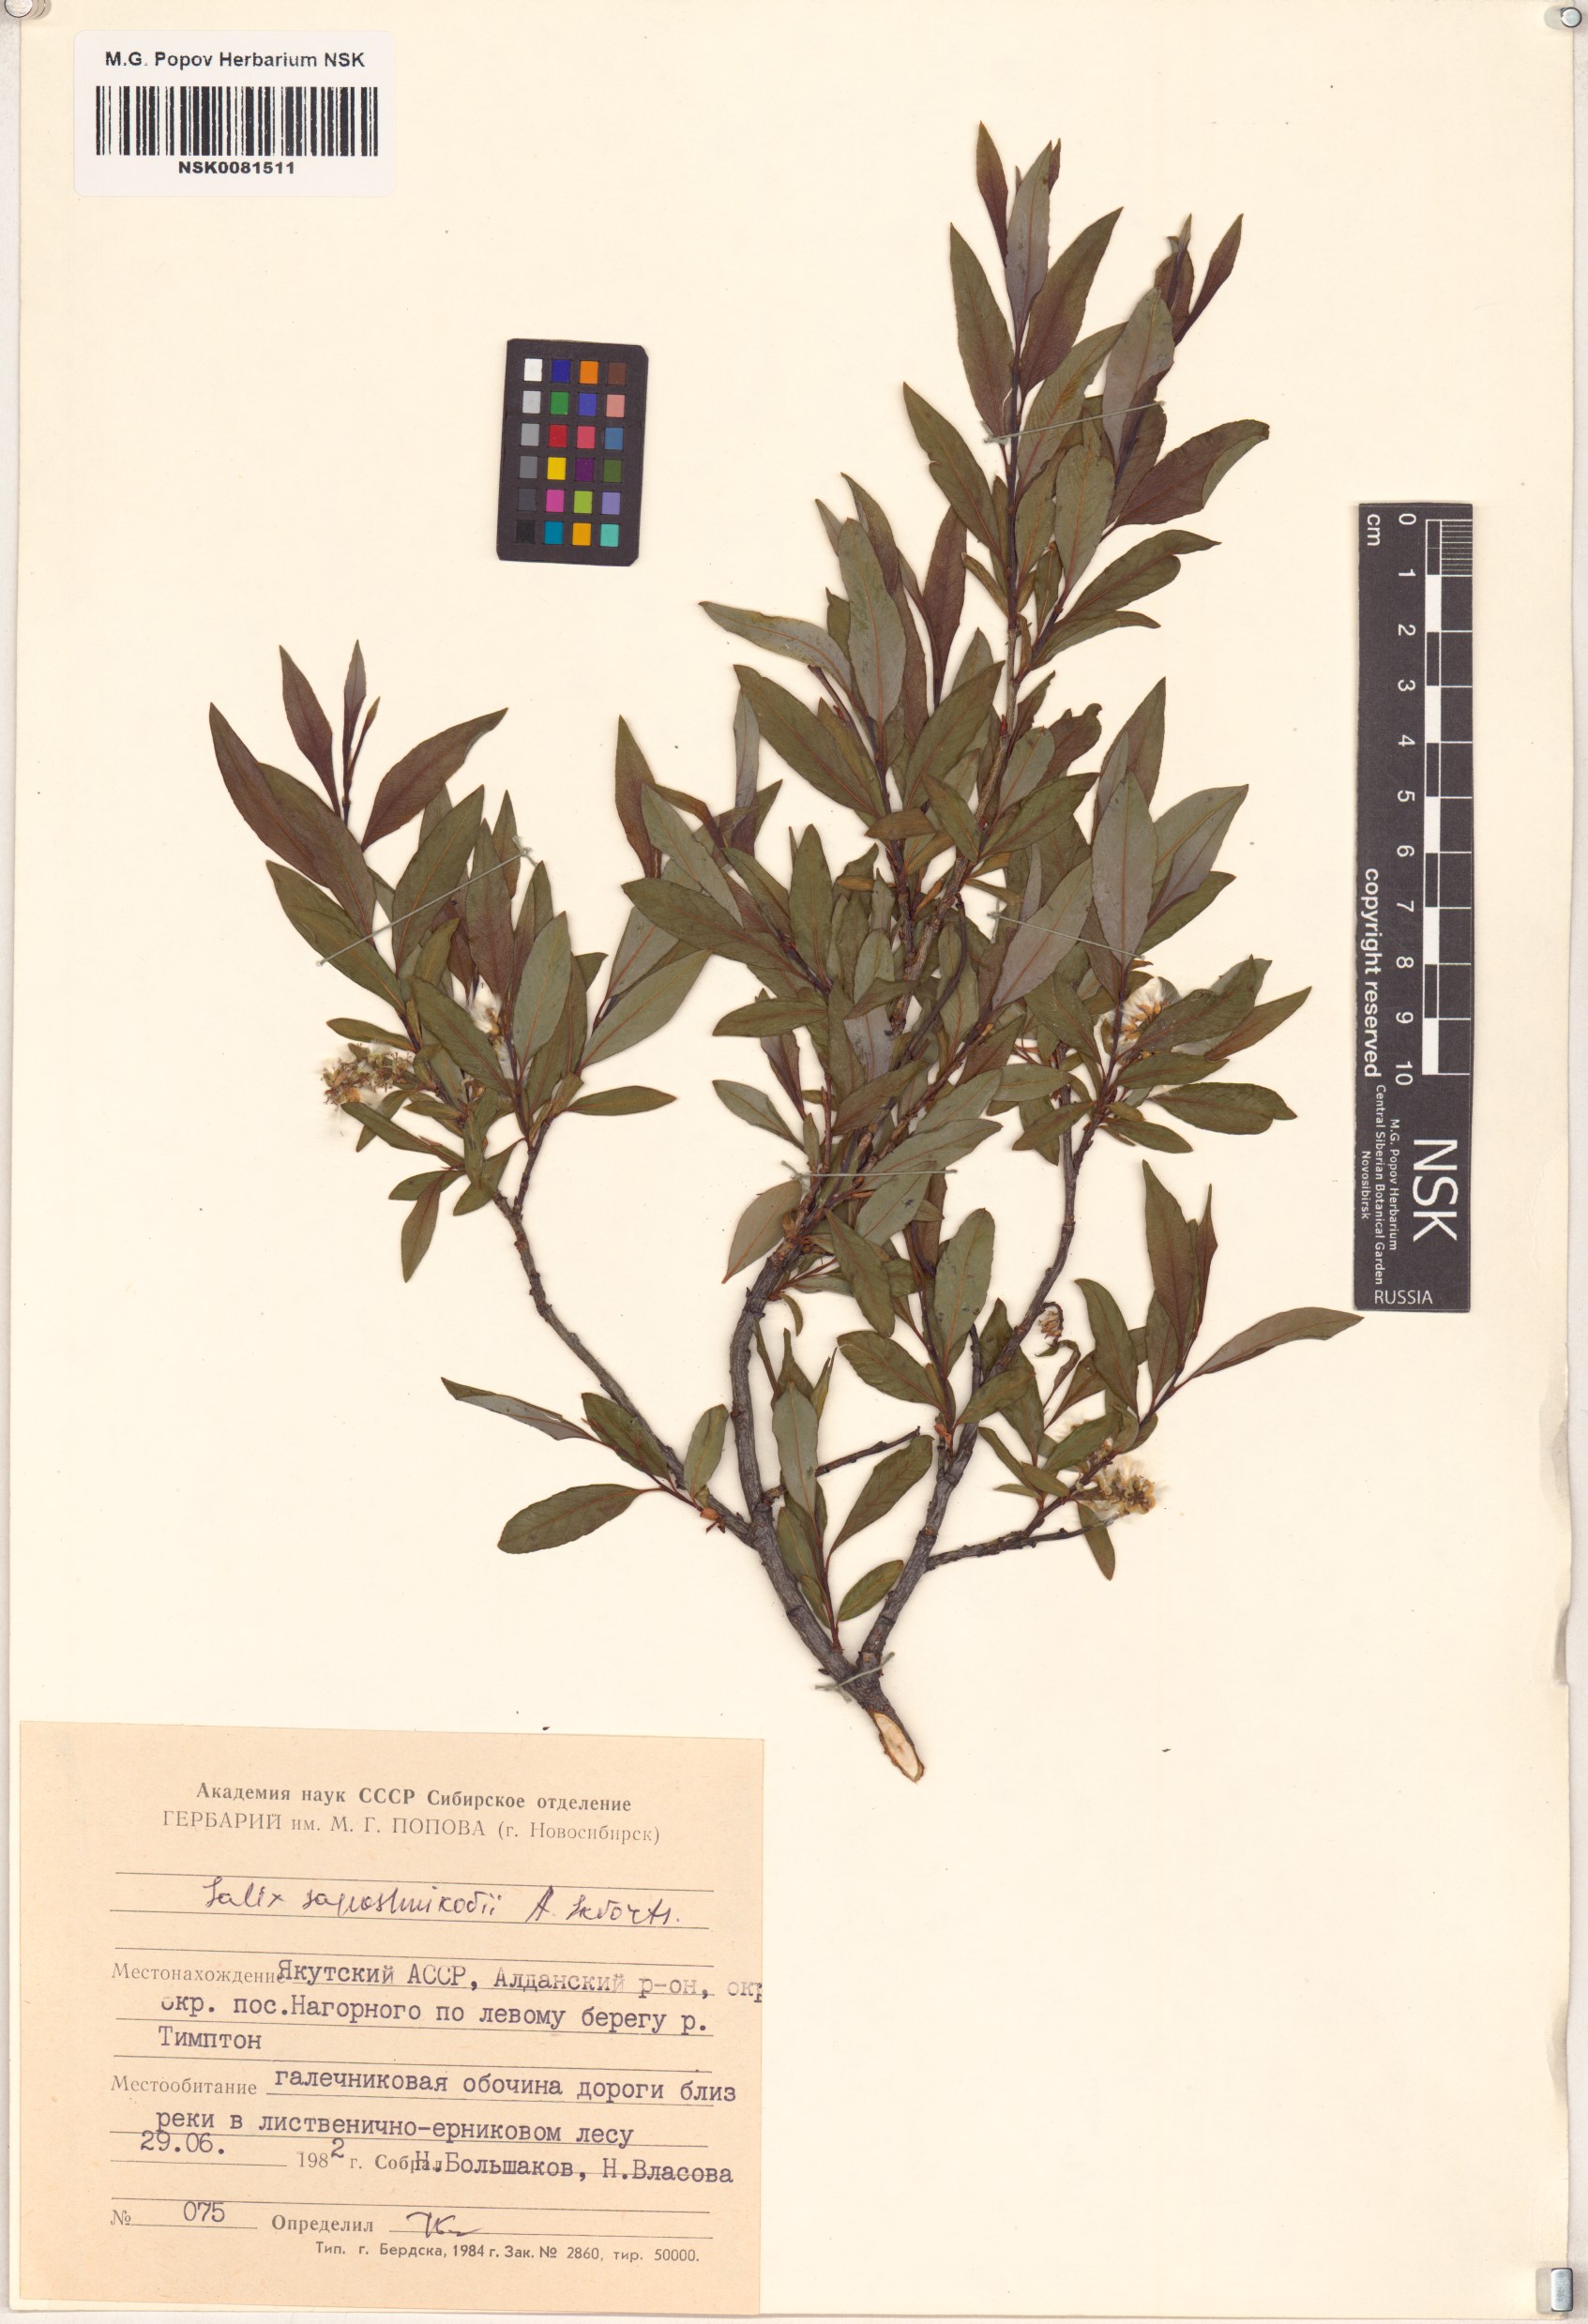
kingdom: Plantae
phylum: Tracheophyta
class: Magnoliopsida
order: Malpighiales
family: Salicaceae
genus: Salix
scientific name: Salix saposhnikovii
